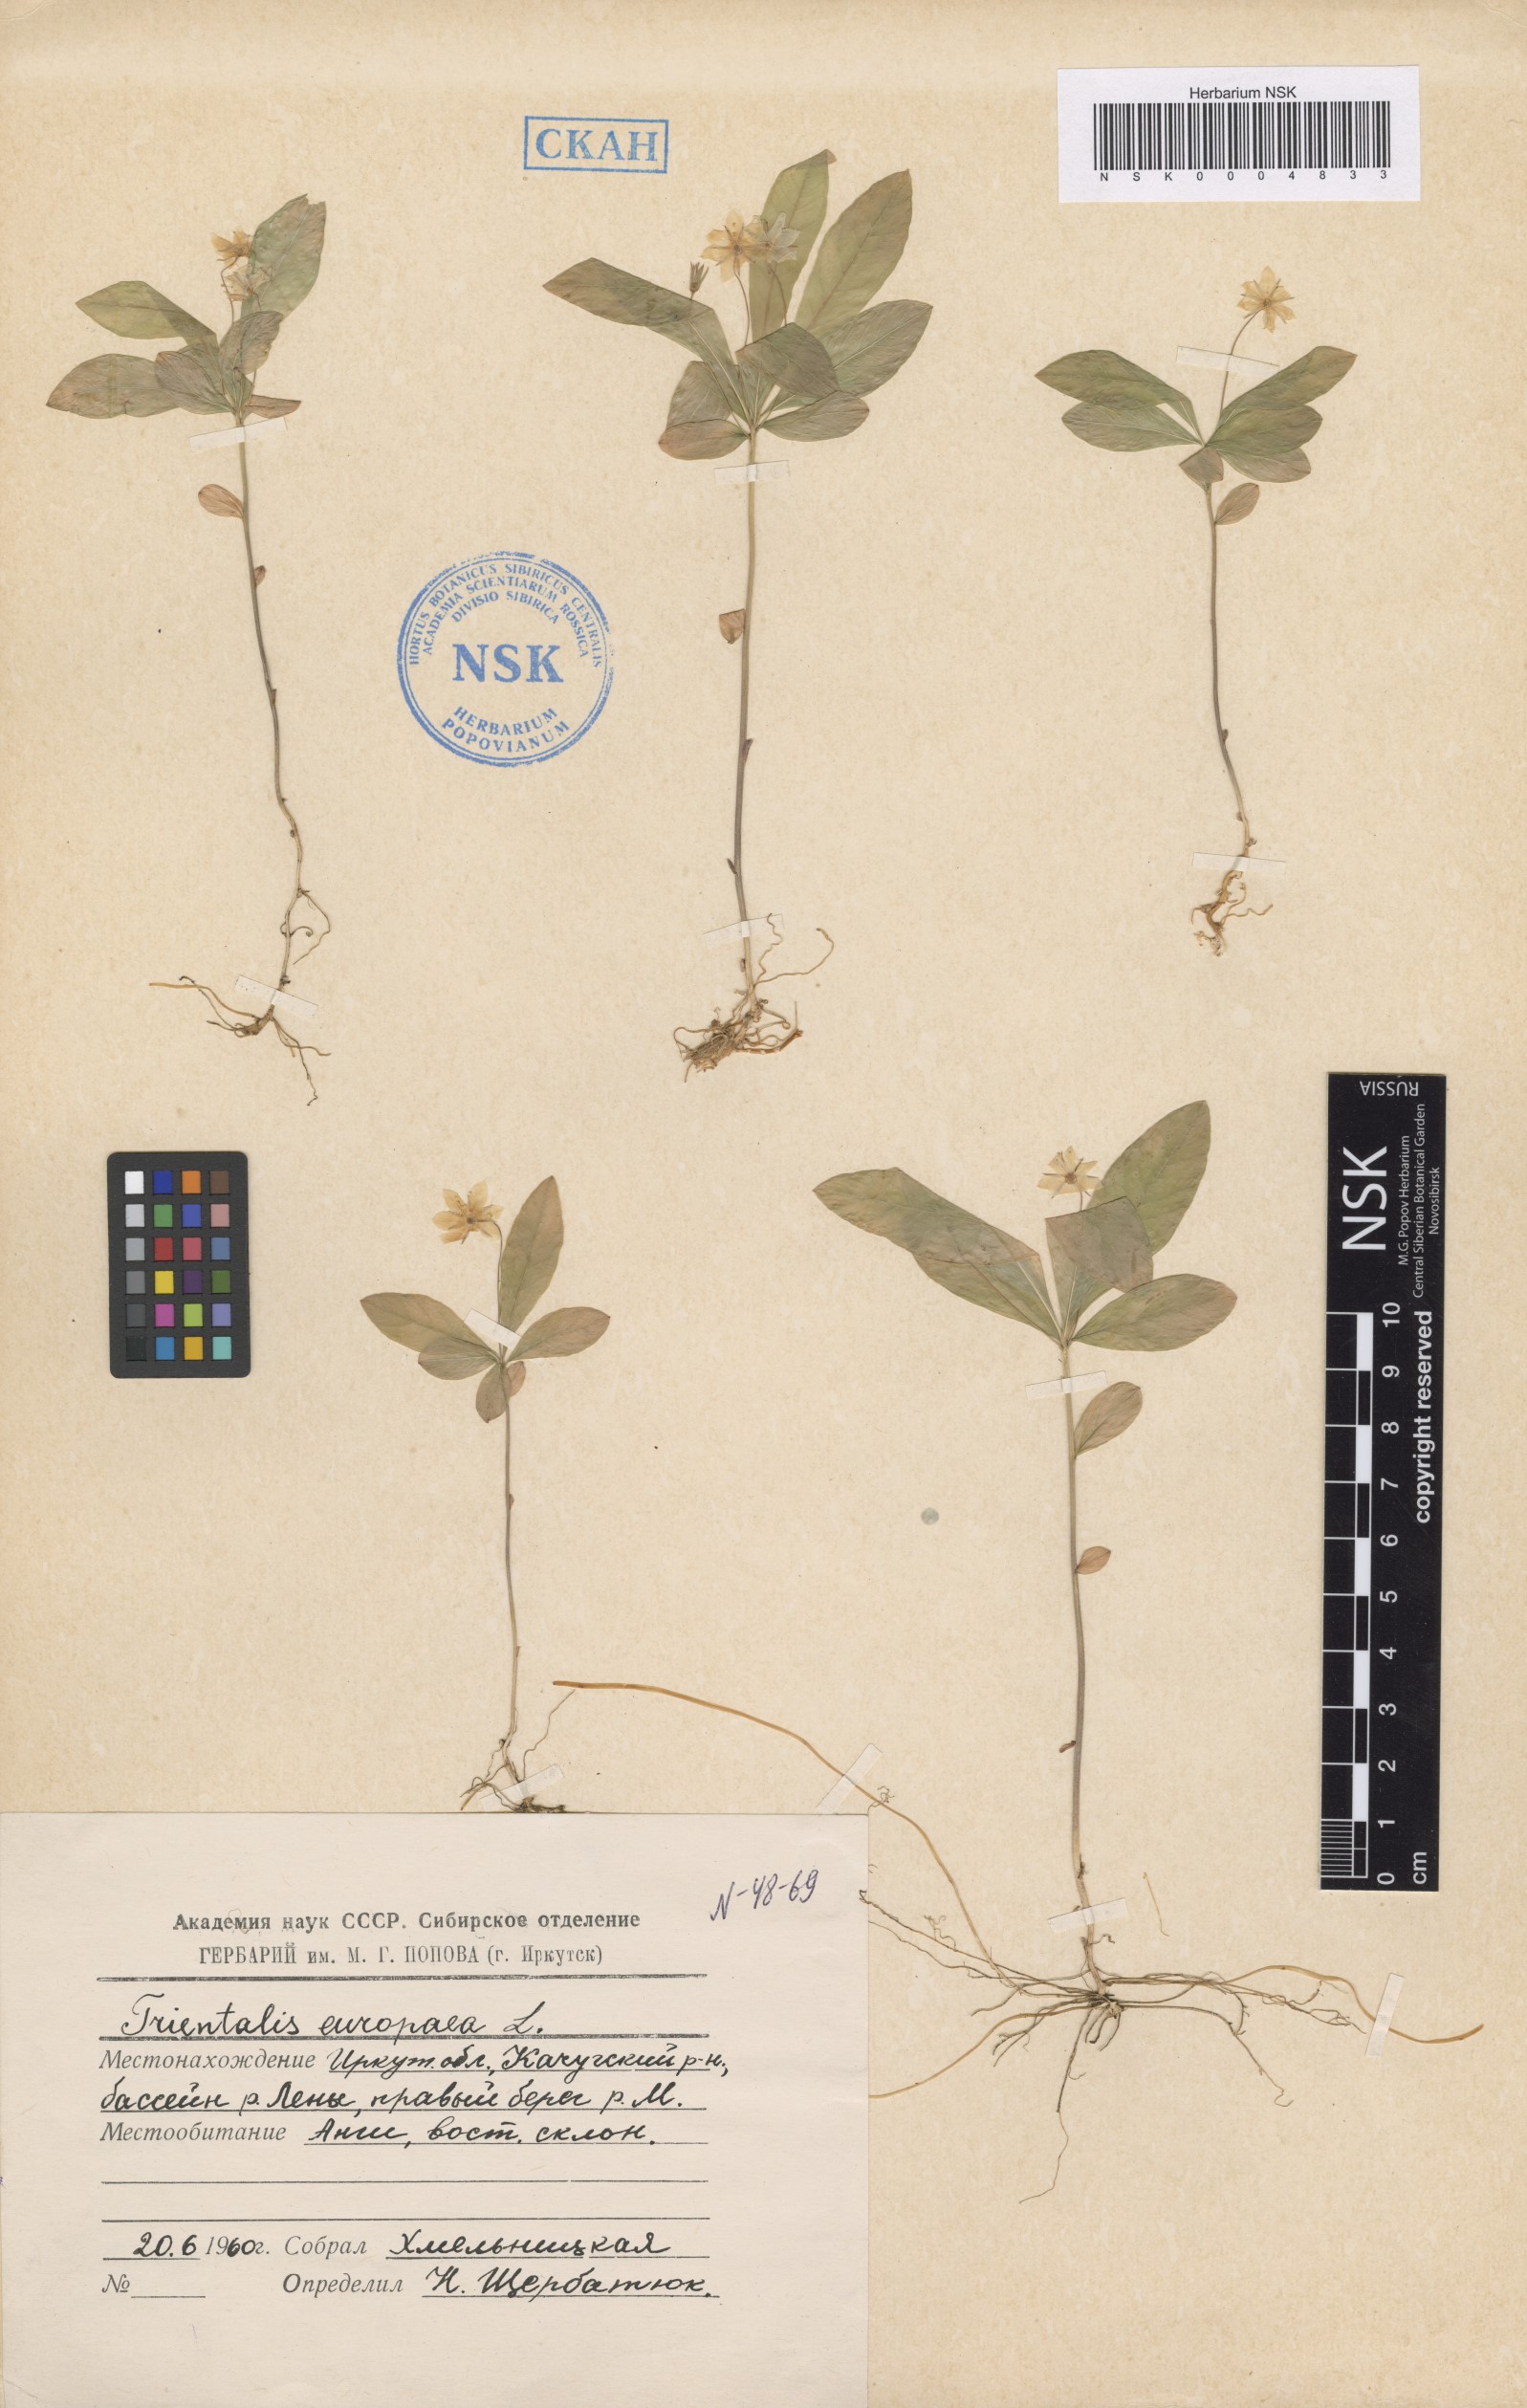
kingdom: Plantae
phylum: Tracheophyta
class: Magnoliopsida
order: Ericales
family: Primulaceae
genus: Lysimachia
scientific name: Lysimachia europaea
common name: Arctic starflower
